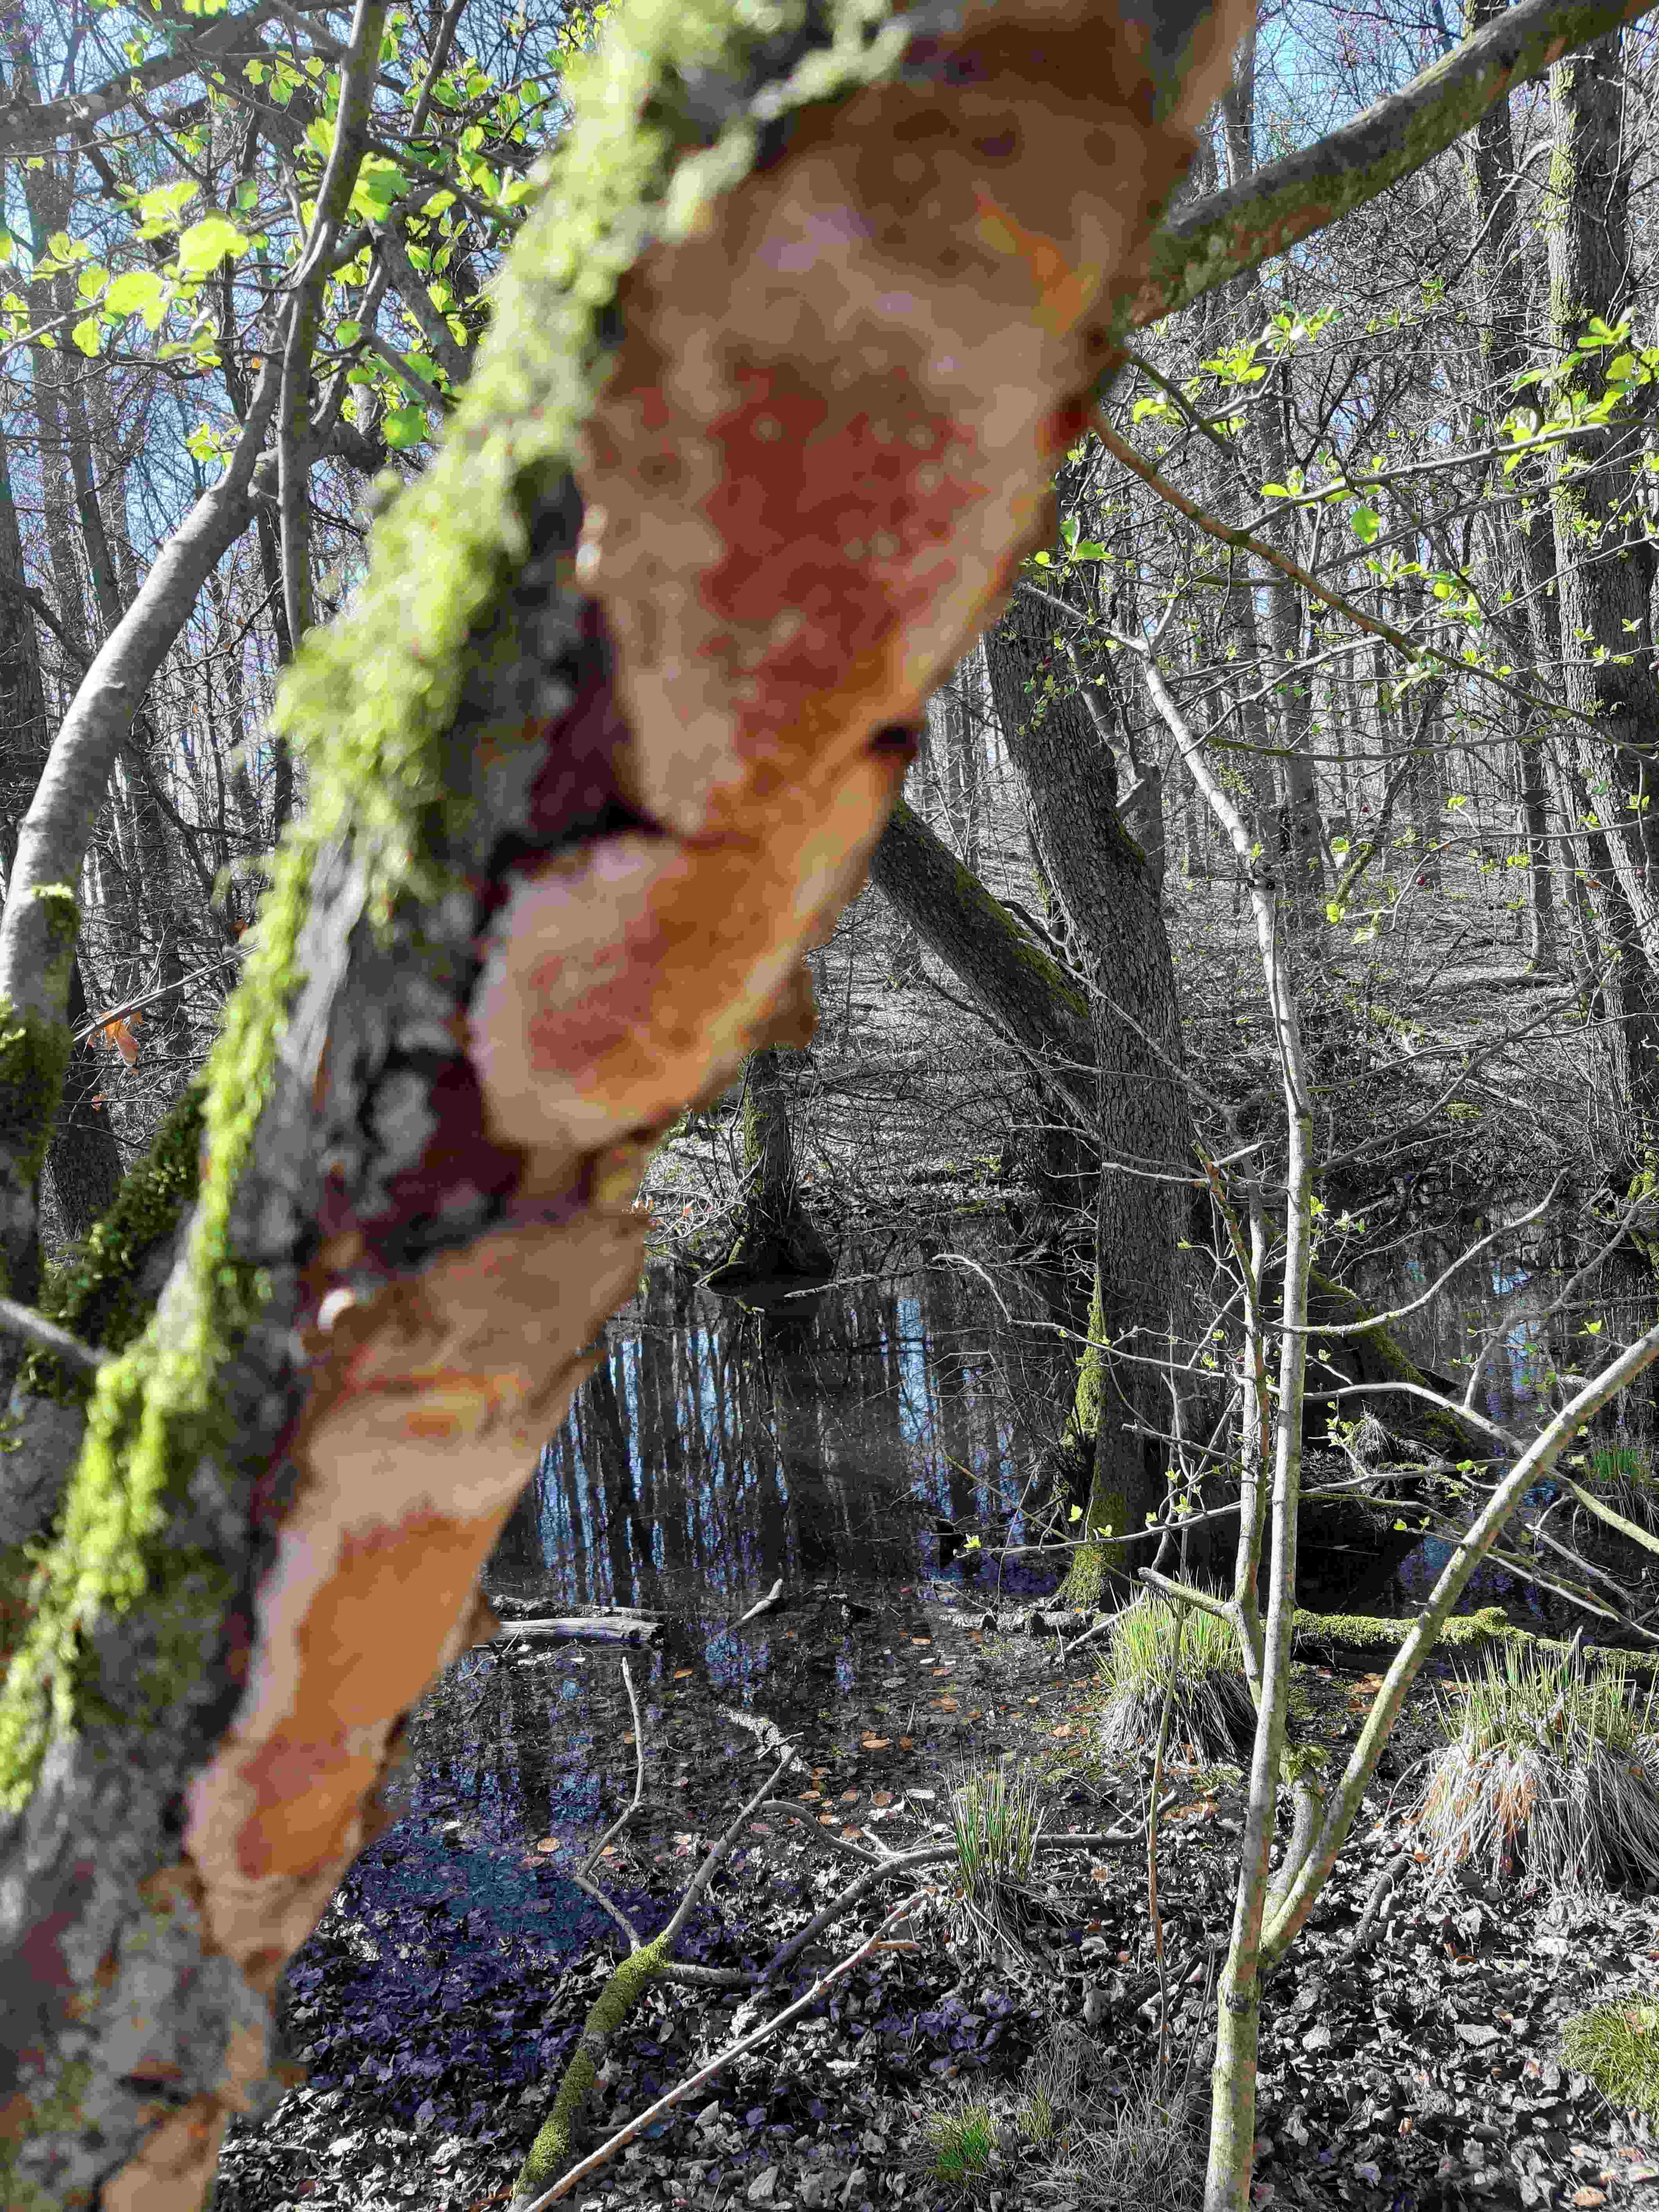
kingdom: Fungi
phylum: Basidiomycota
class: Agaricomycetes
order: Hymenochaetales
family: Hymenochaetaceae
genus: Fuscoporia
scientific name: Fuscoporia
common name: Ildporesvamp
